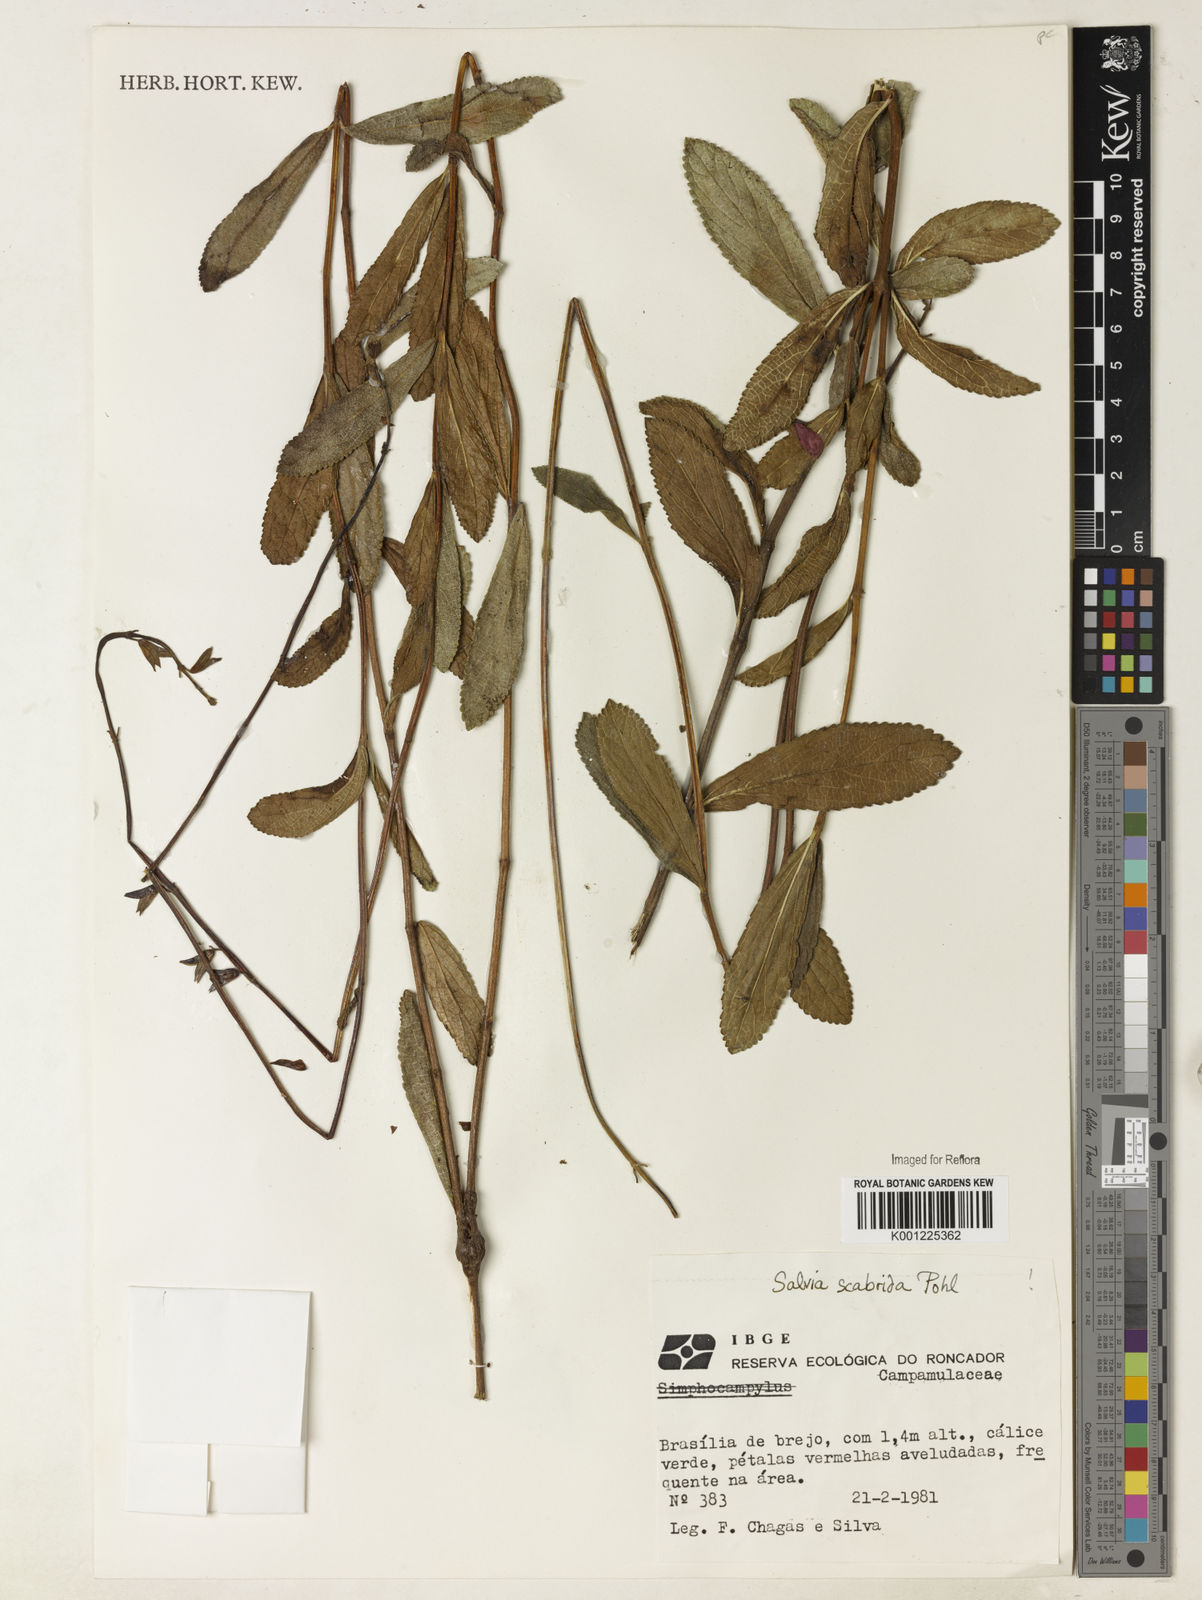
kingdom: Plantae
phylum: Tracheophyta
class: Magnoliopsida
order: Lamiales
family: Lamiaceae
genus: Salvia
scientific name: Salvia scabrida
